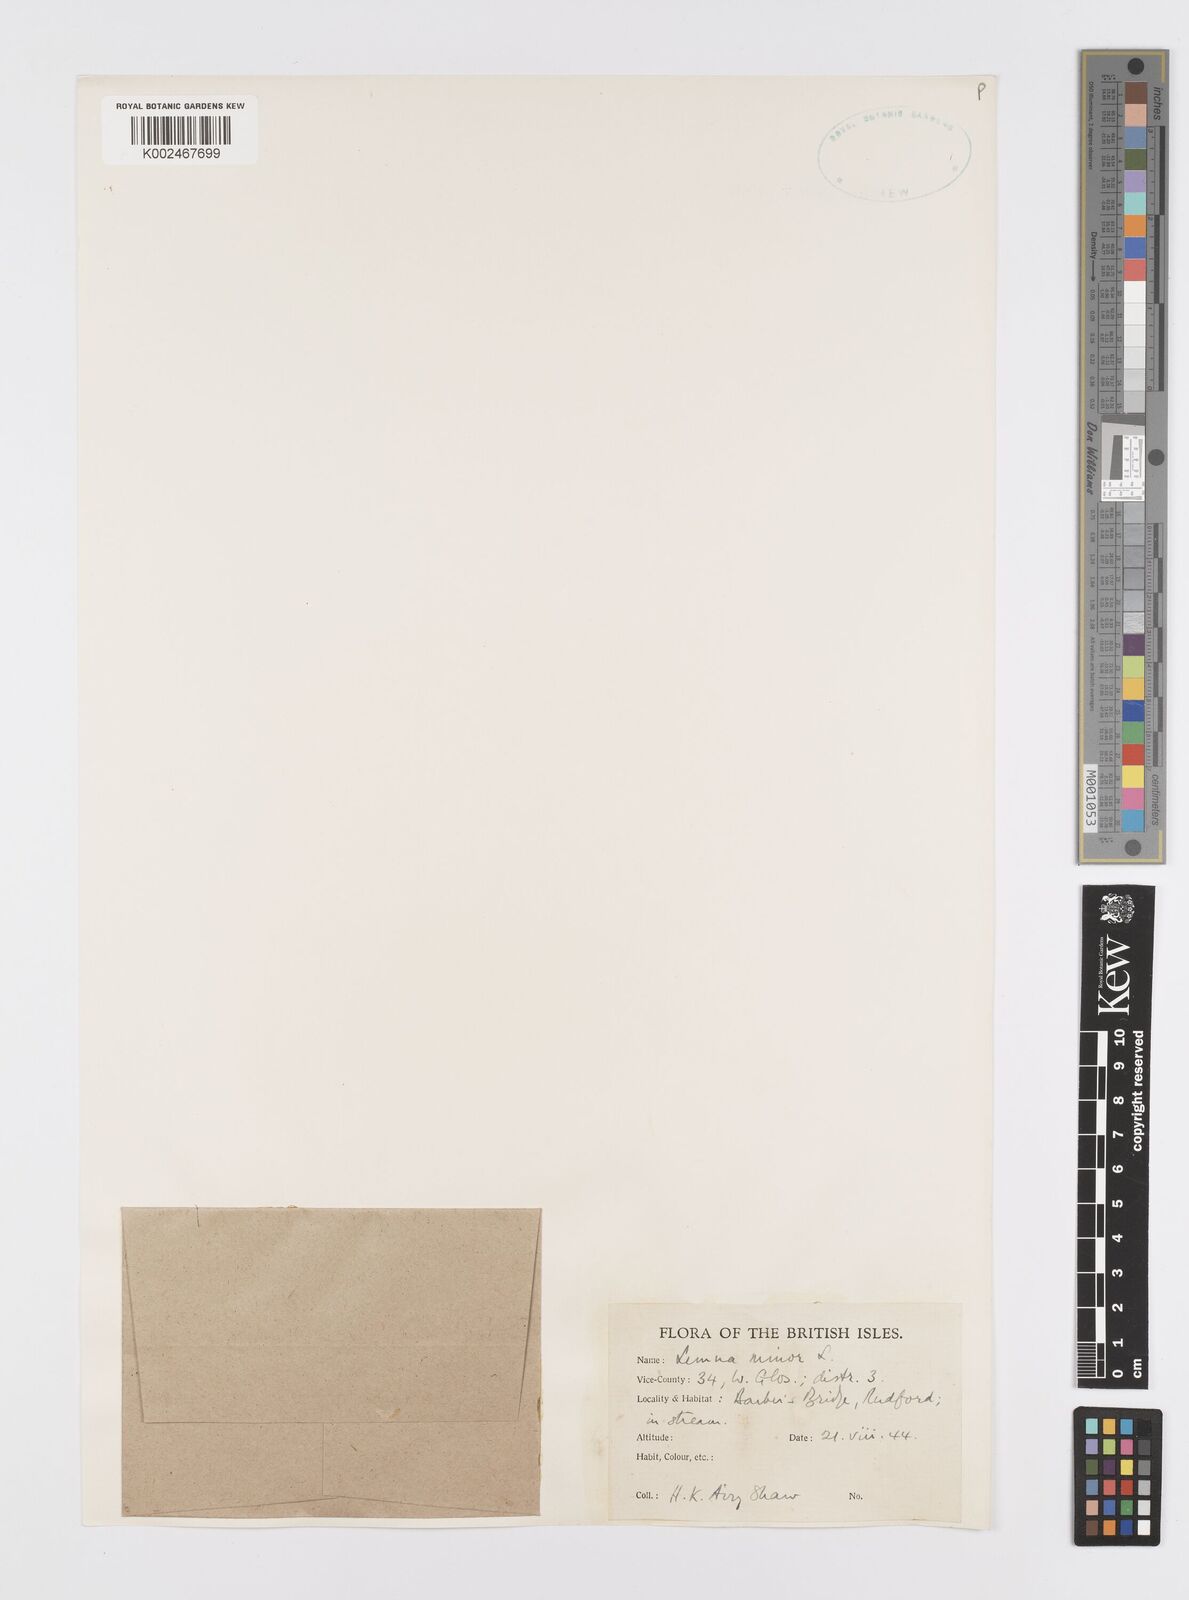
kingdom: Plantae
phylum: Tracheophyta
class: Liliopsida
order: Alismatales
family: Araceae
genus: Lemna
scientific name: Lemna minor
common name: Common duckweed
